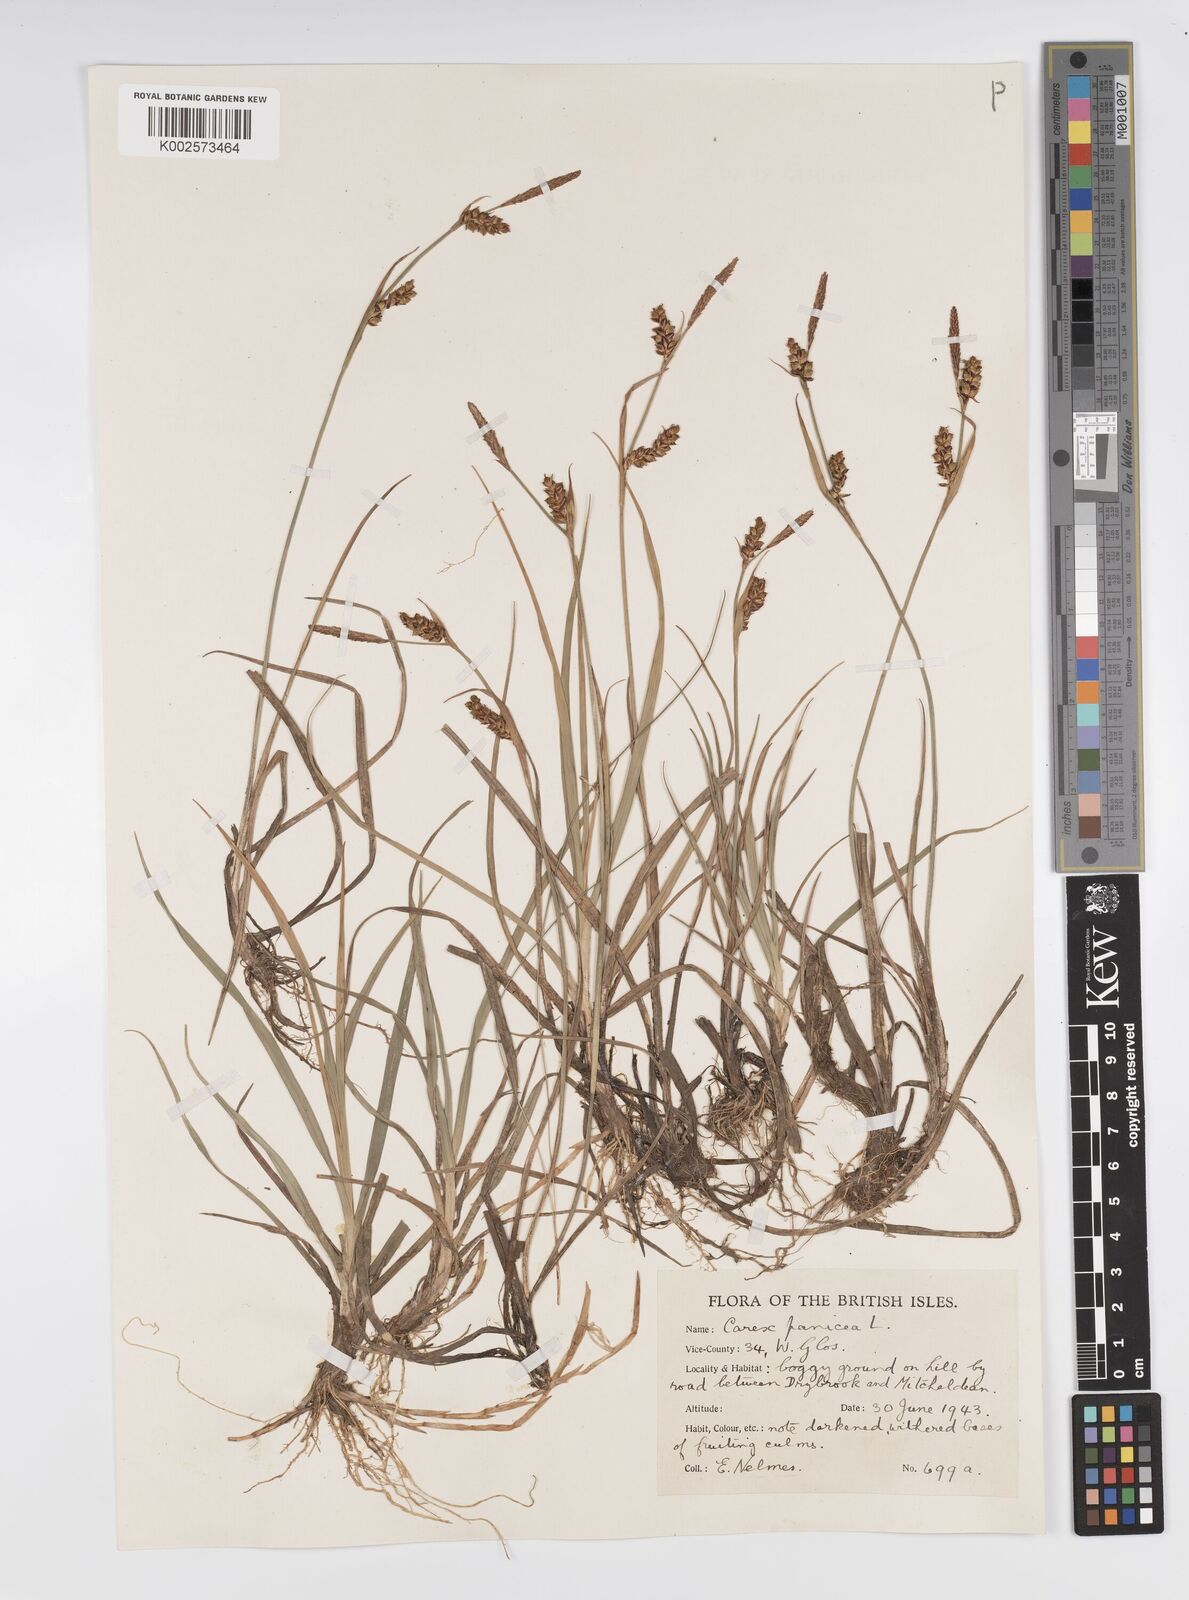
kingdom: Plantae
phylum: Tracheophyta
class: Liliopsida
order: Poales
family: Cyperaceae
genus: Carex
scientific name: Carex panicea
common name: Carnation sedge
